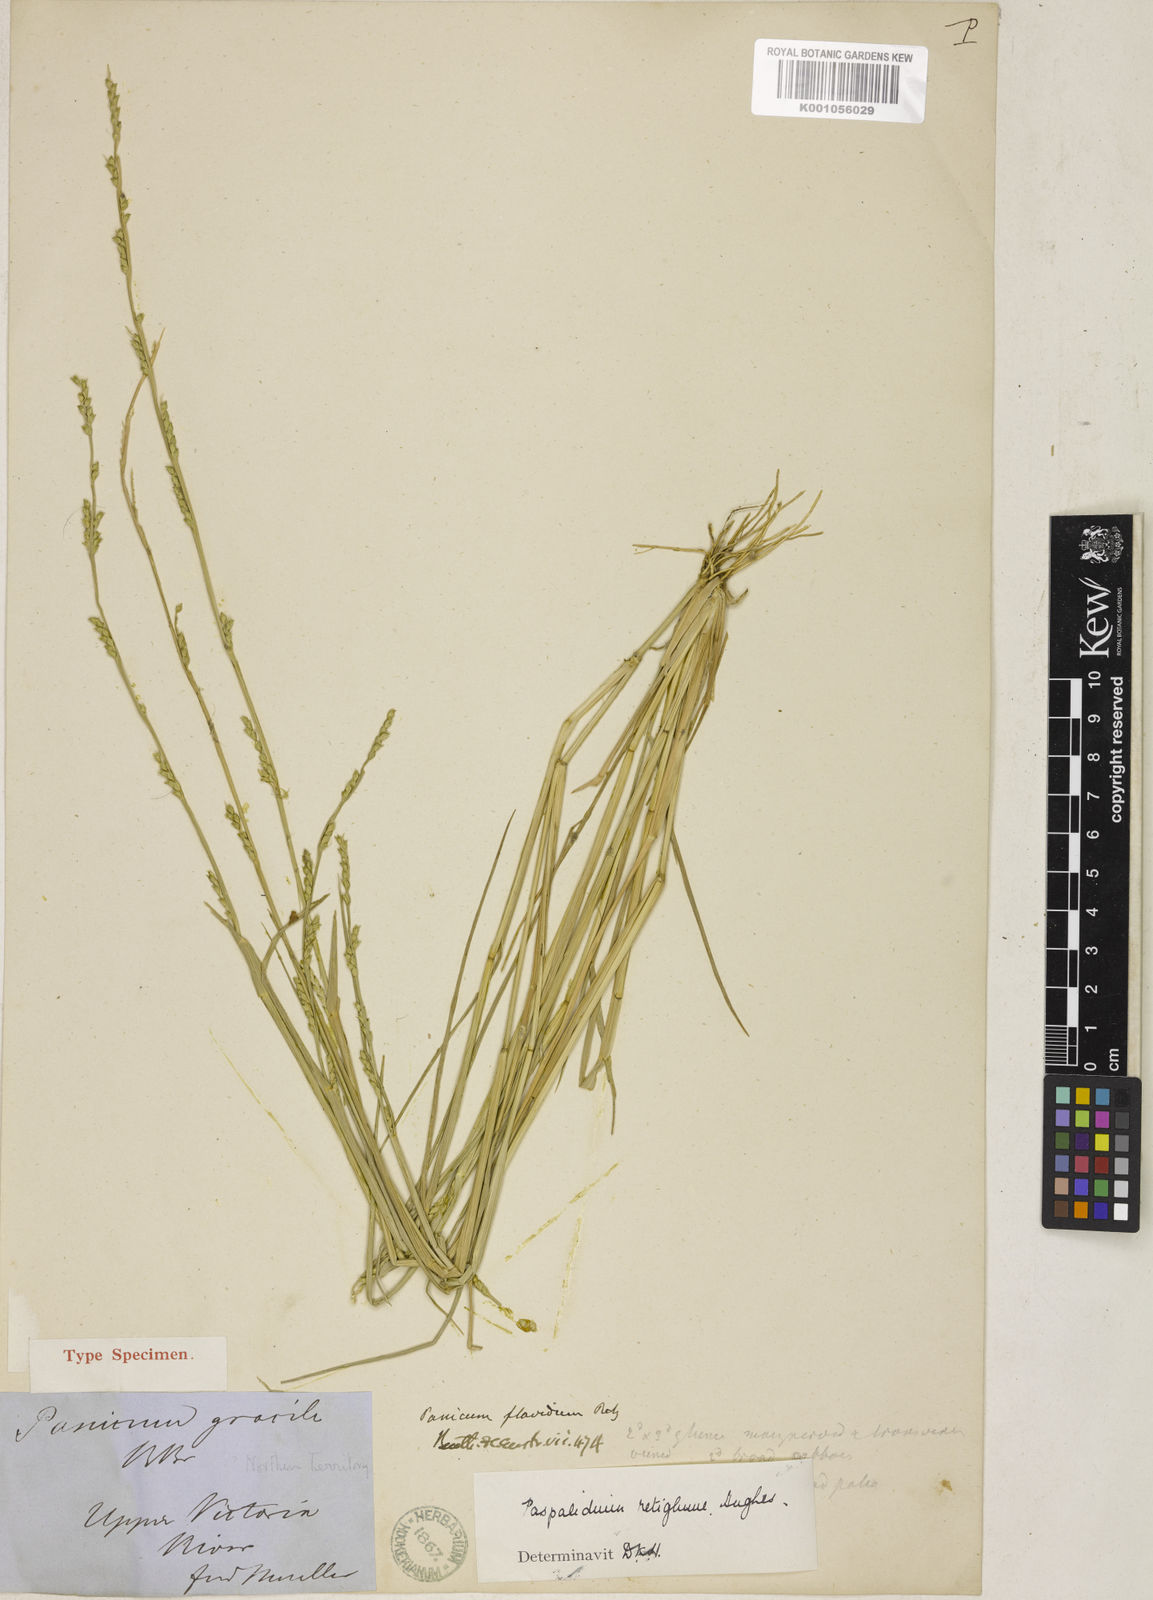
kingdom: Plantae
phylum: Tracheophyta
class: Liliopsida
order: Poales
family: Poaceae
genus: Setaria
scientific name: Setaria retiglumis
